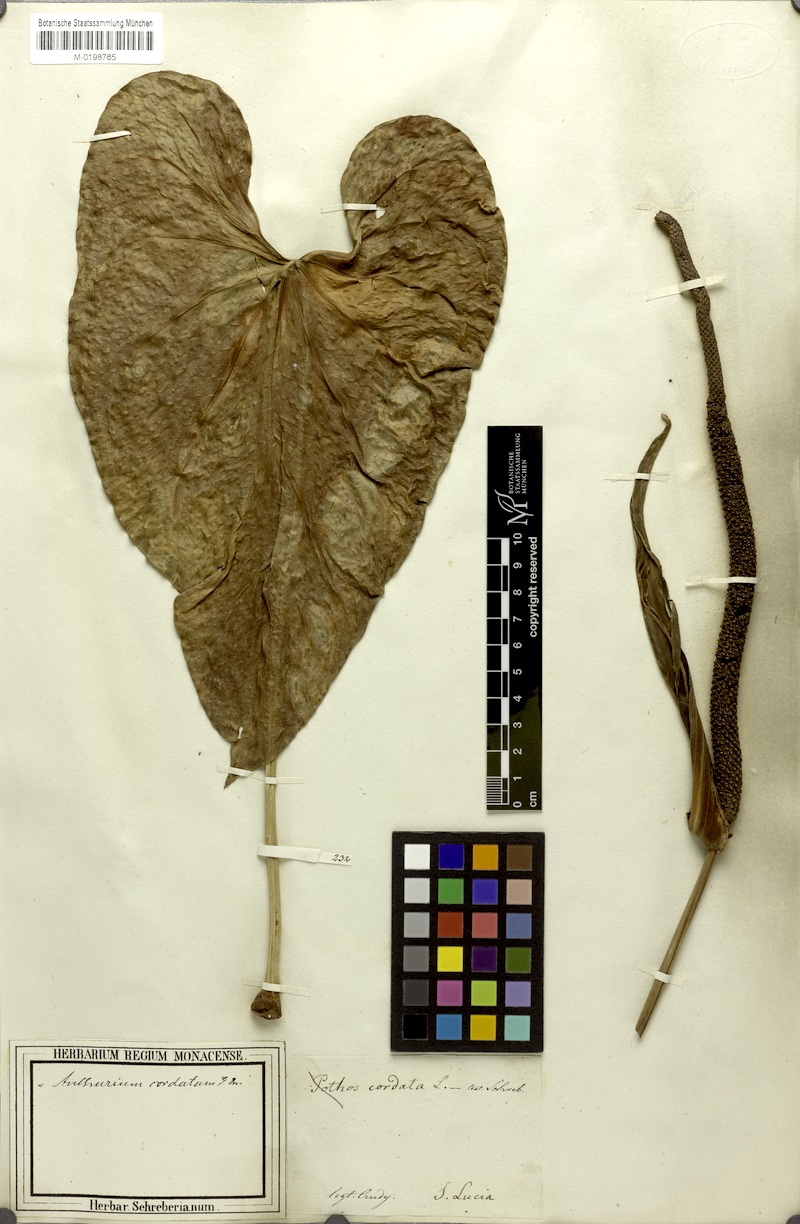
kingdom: Plantae
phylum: Tracheophyta
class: Liliopsida
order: Alismatales
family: Araceae
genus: Anthurium
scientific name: Anthurium cordatum
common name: Monkey tail
